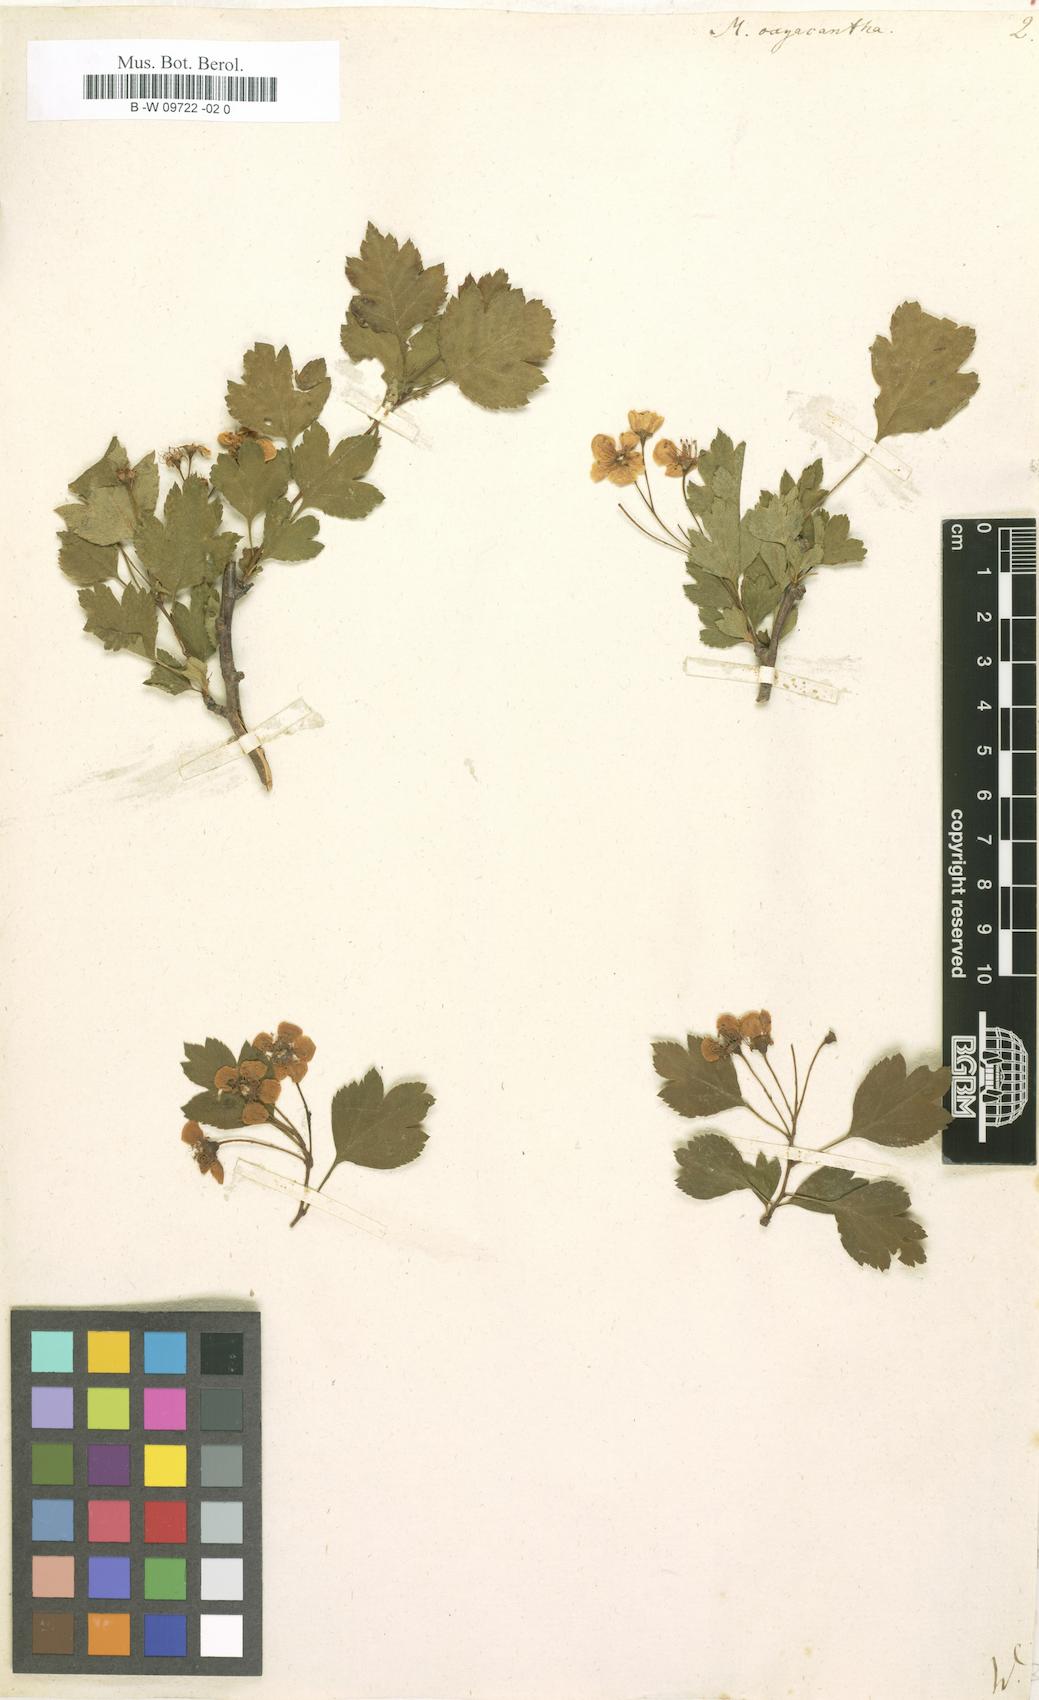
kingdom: Plantae
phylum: Tracheophyta
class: Magnoliopsida
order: Rosales
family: Rosaceae
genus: Crataegus
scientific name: Crataegus
